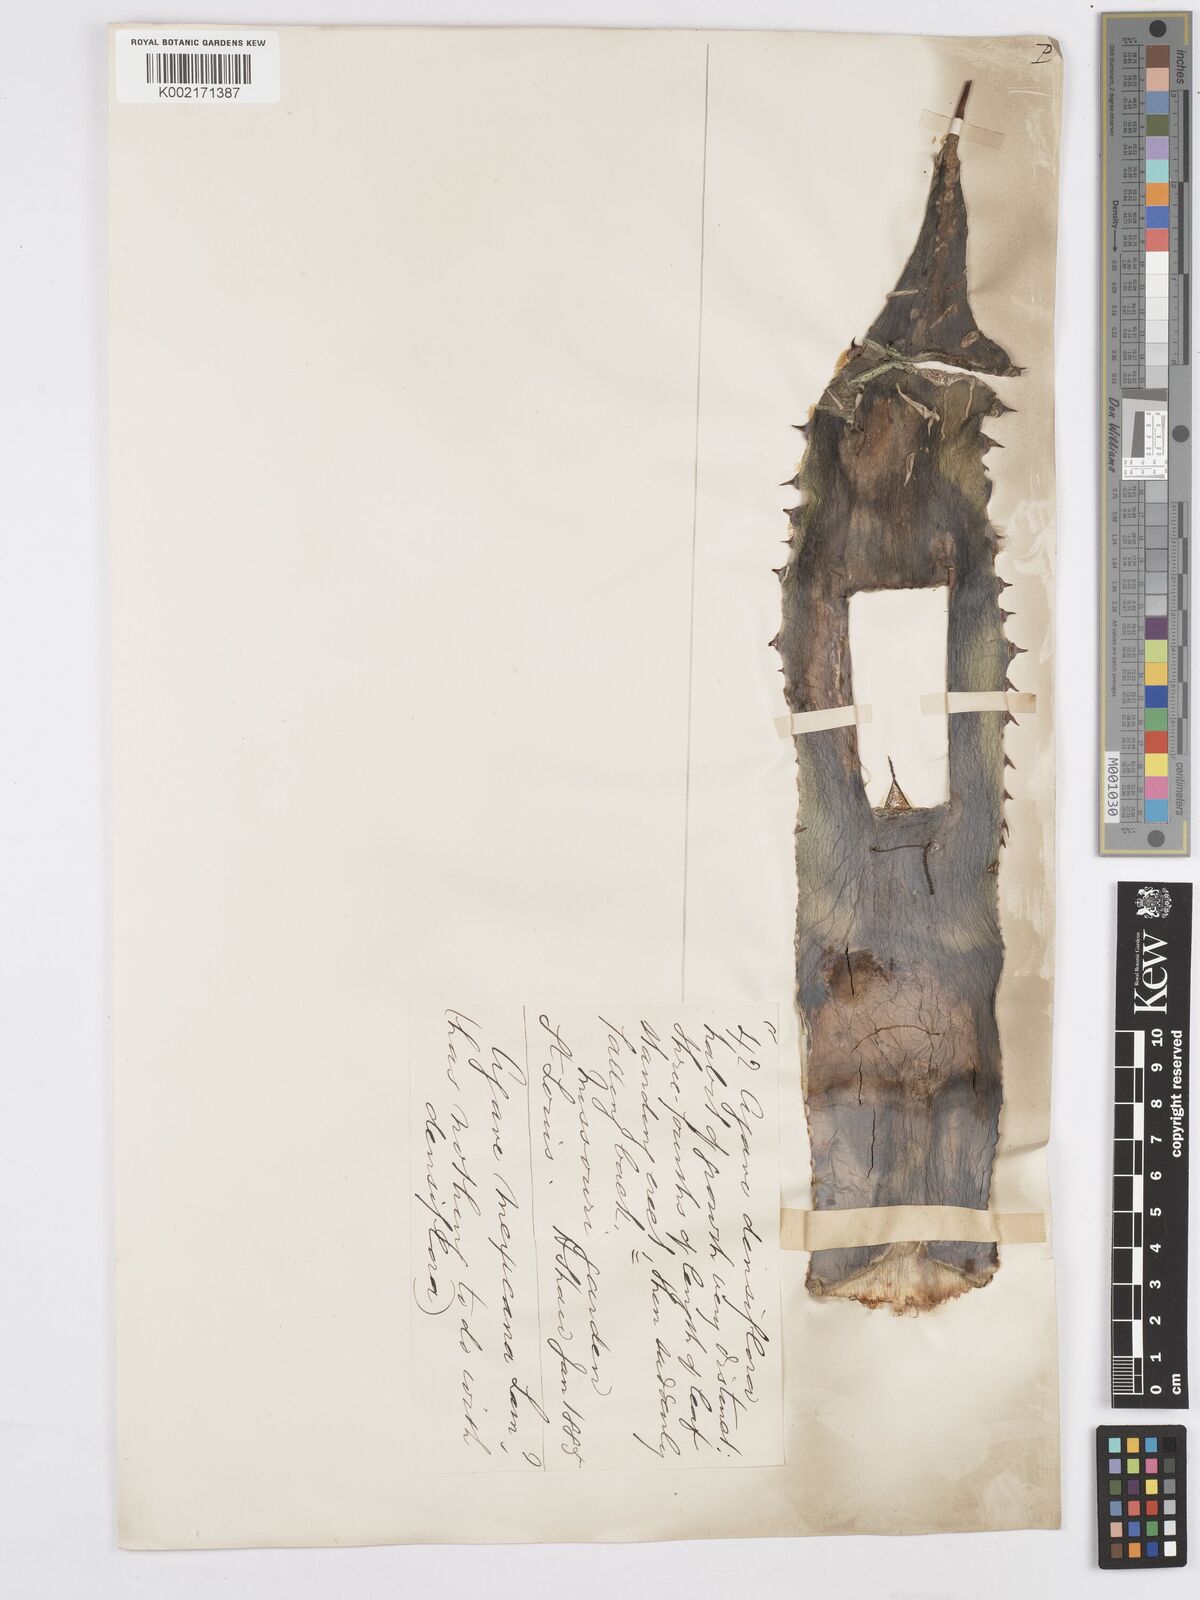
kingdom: Plantae
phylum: Tracheophyta
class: Liliopsida
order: Asparagales
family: Asparagaceae
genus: Agave
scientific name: Agave polyacantha
